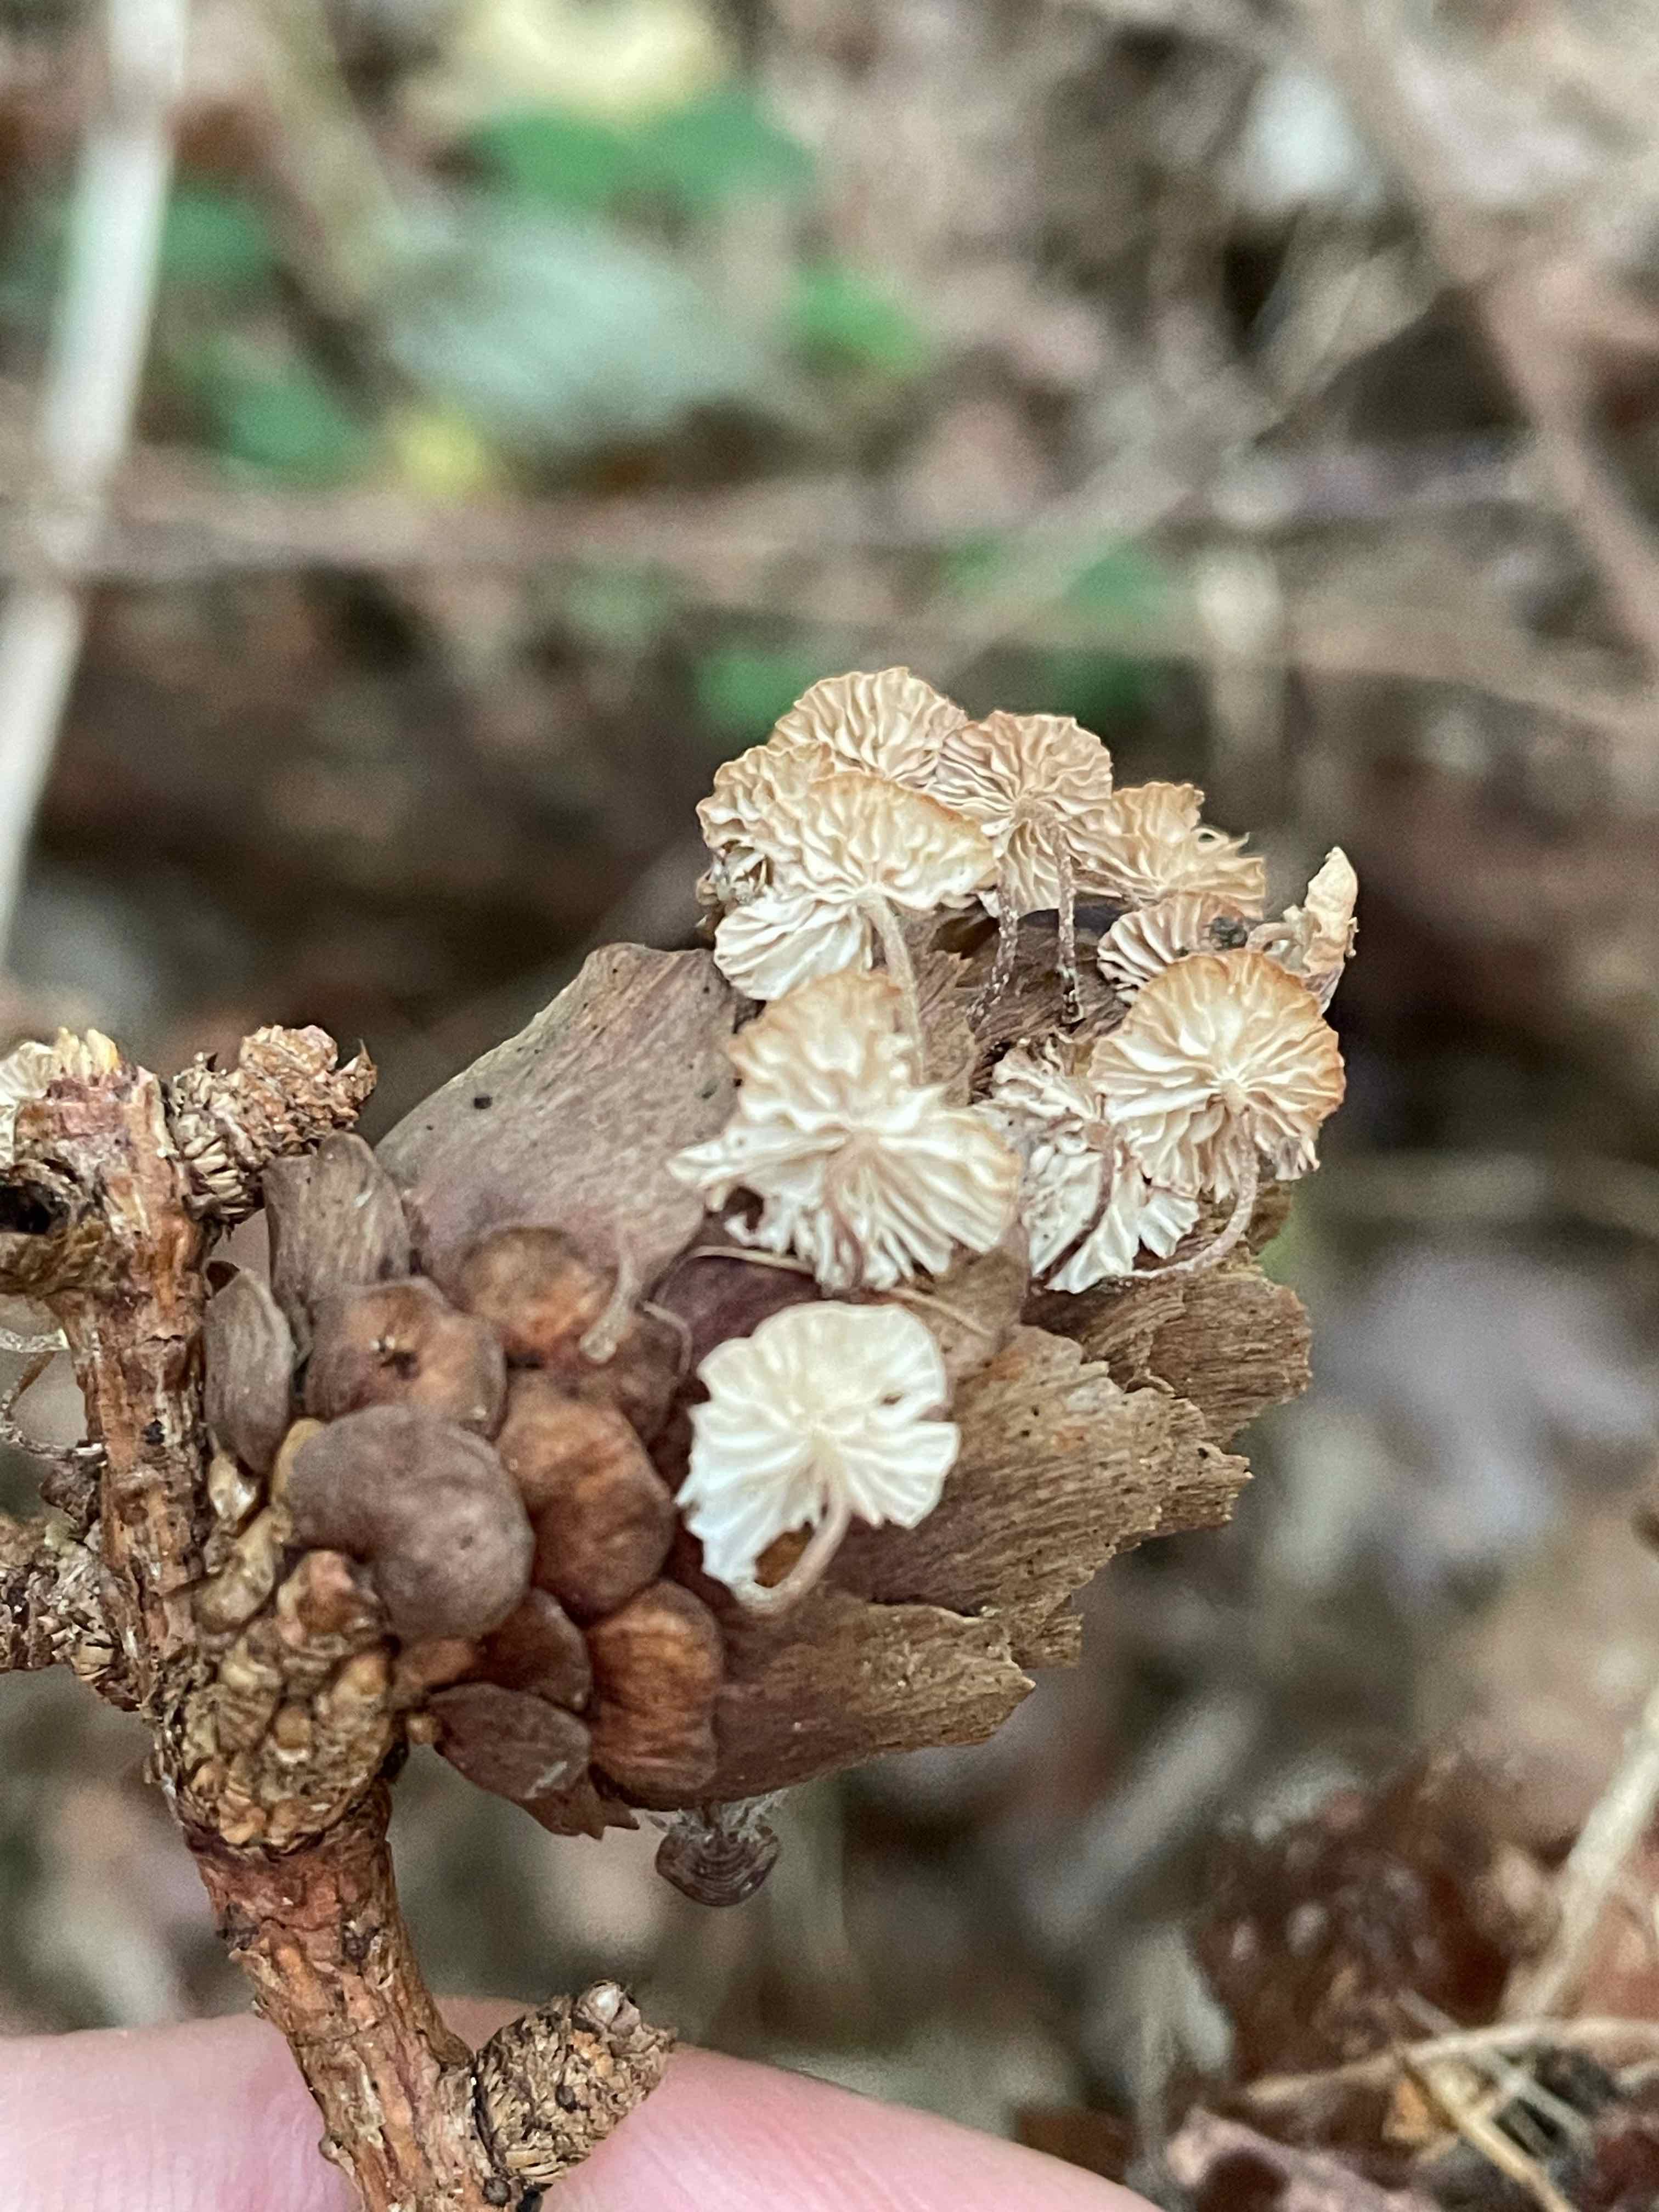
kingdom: Fungi
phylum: Basidiomycota
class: Agaricomycetes
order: Agaricales
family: Omphalotaceae
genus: Collybiopsis
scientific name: Collybiopsis ramealis
